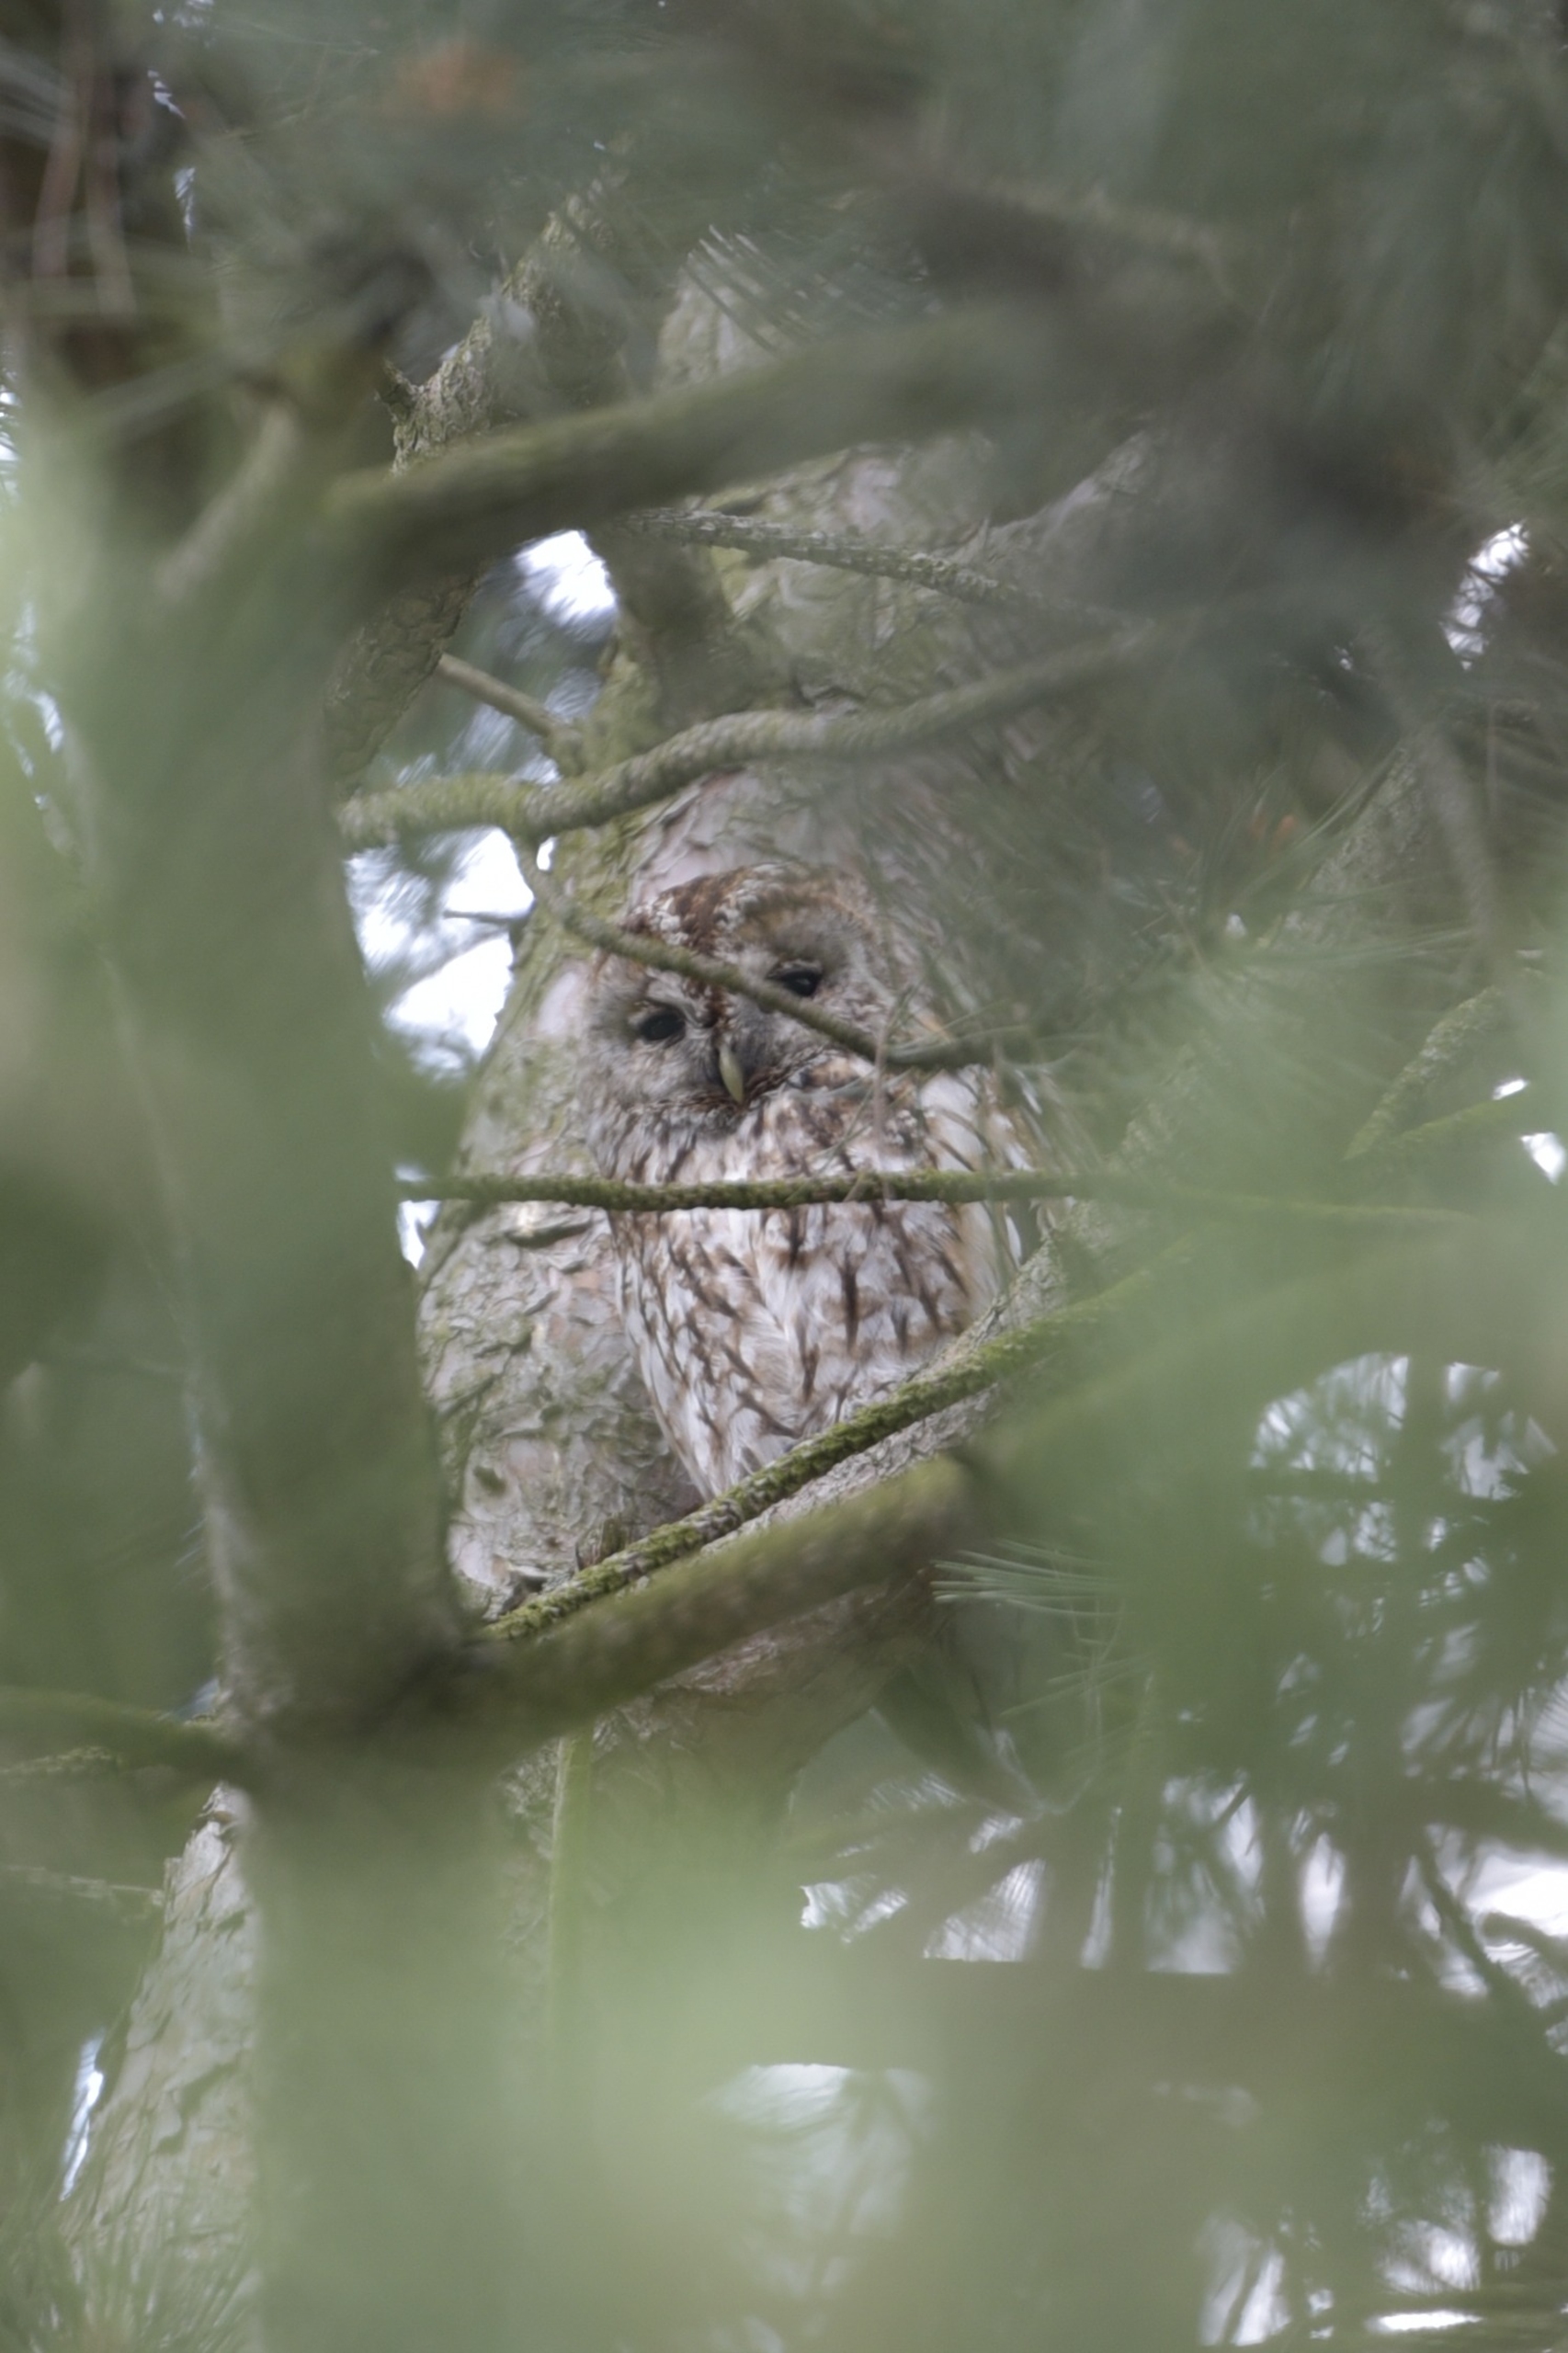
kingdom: Animalia
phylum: Chordata
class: Aves
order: Strigiformes
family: Strigidae
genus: Strix
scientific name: Strix aluco
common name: Natugle
